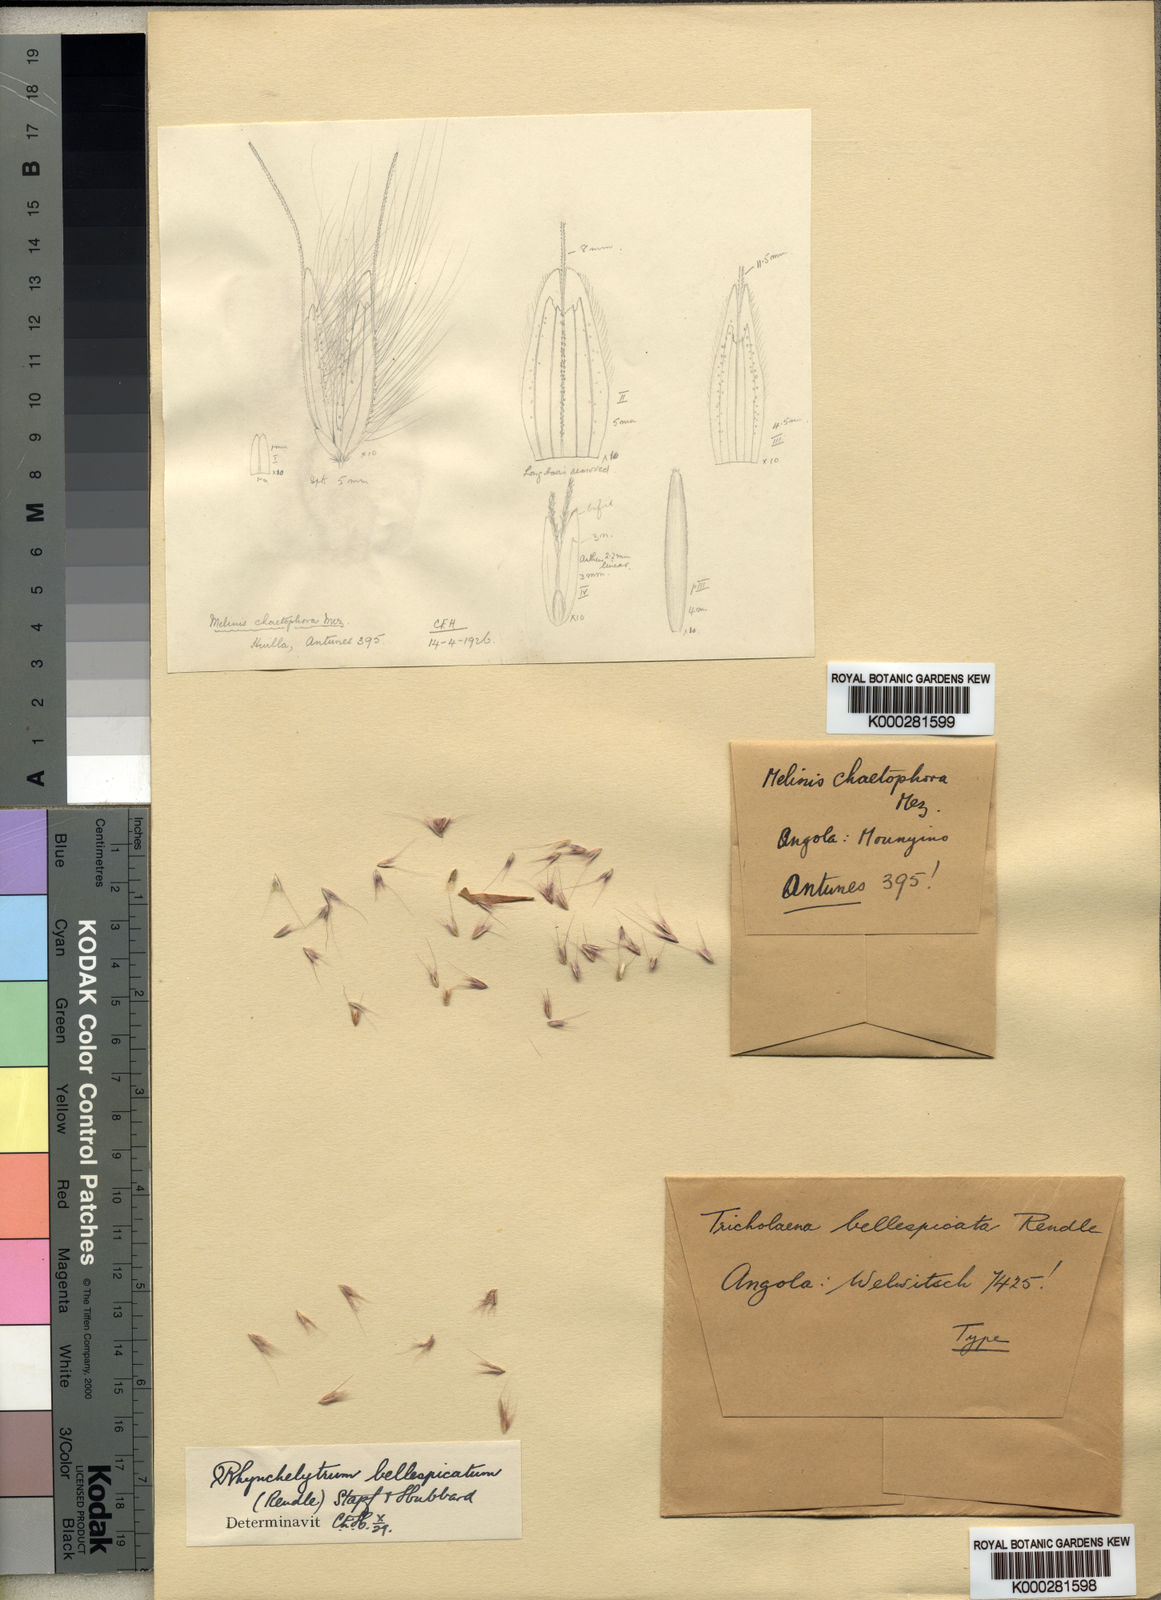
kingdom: Plantae
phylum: Tracheophyta
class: Liliopsida
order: Poales
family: Poaceae
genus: Melinis
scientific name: Melinis longiseta
